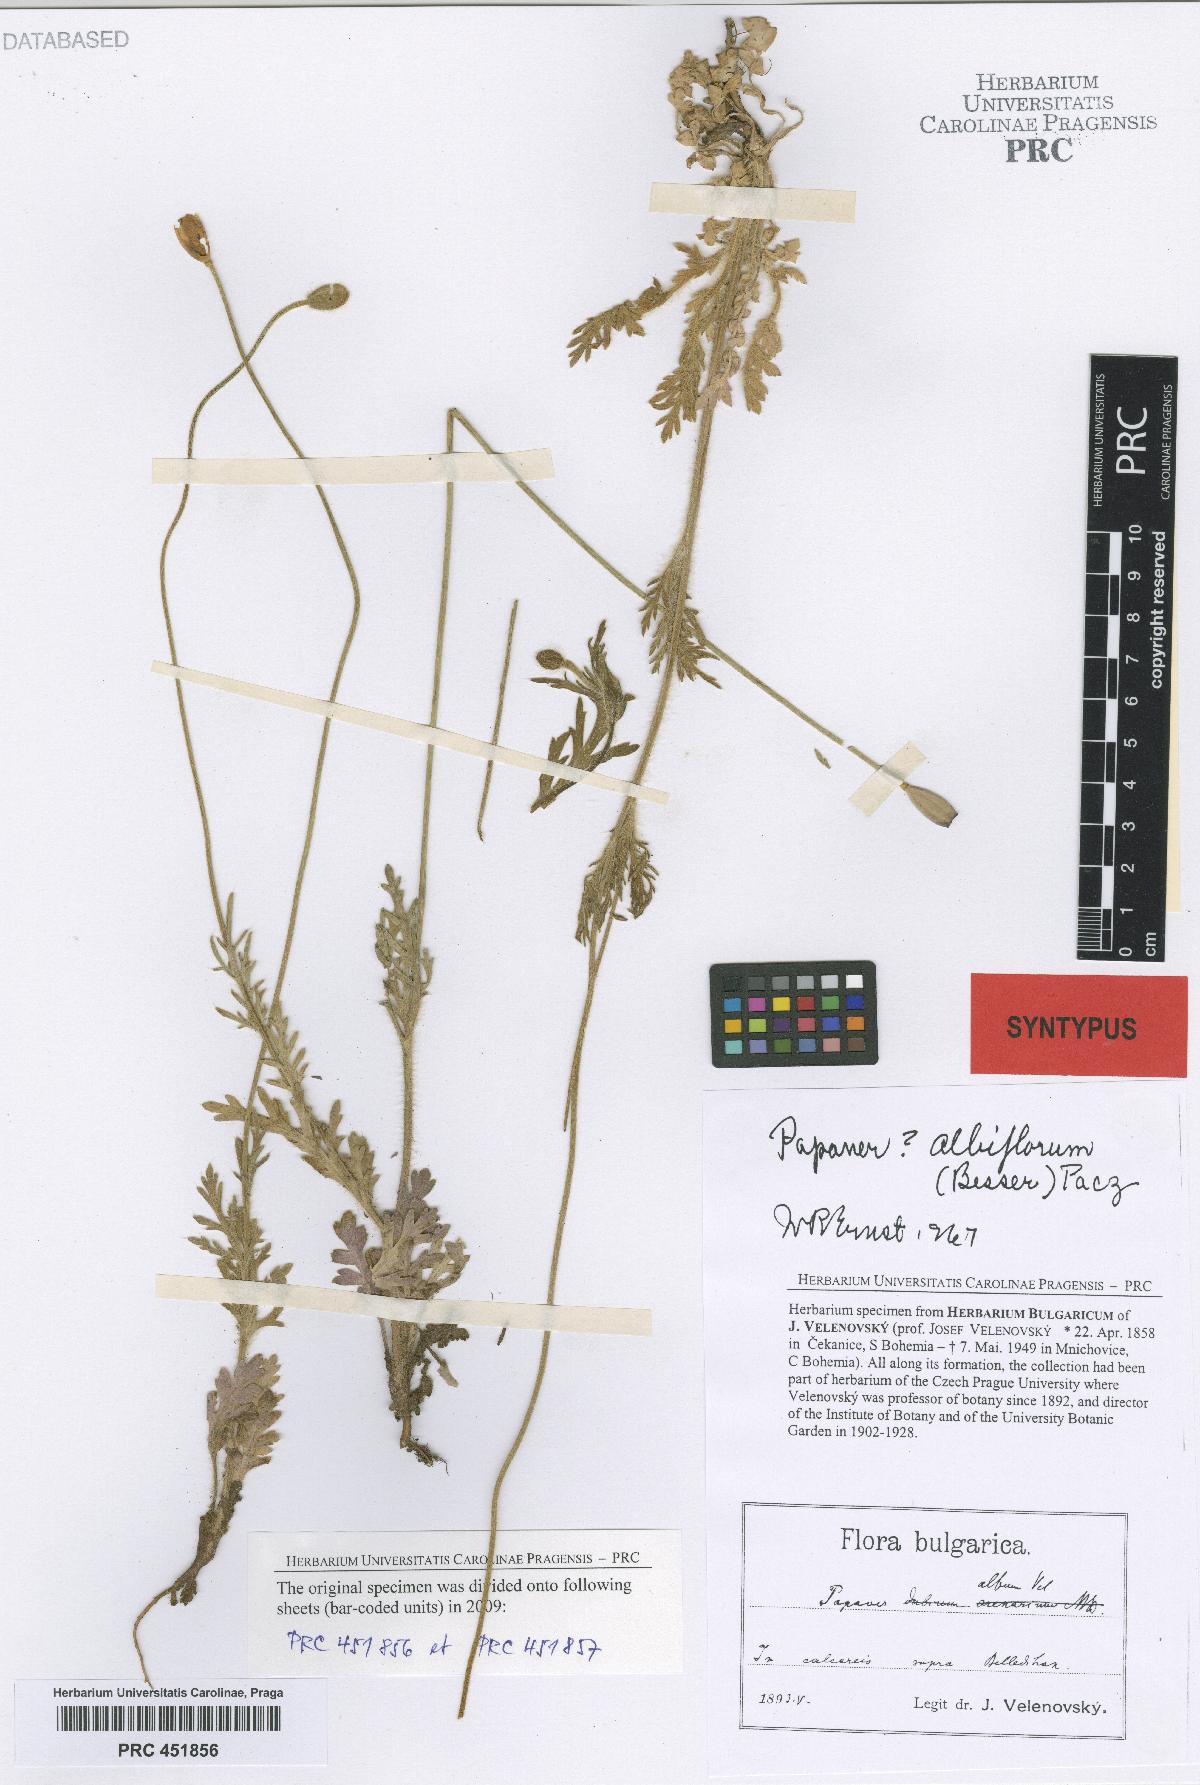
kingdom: Plantae
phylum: Tracheophyta
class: Magnoliopsida
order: Ranunculales
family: Papaveraceae
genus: Papaver
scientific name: Papaver dubium
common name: Long-headed poppy
